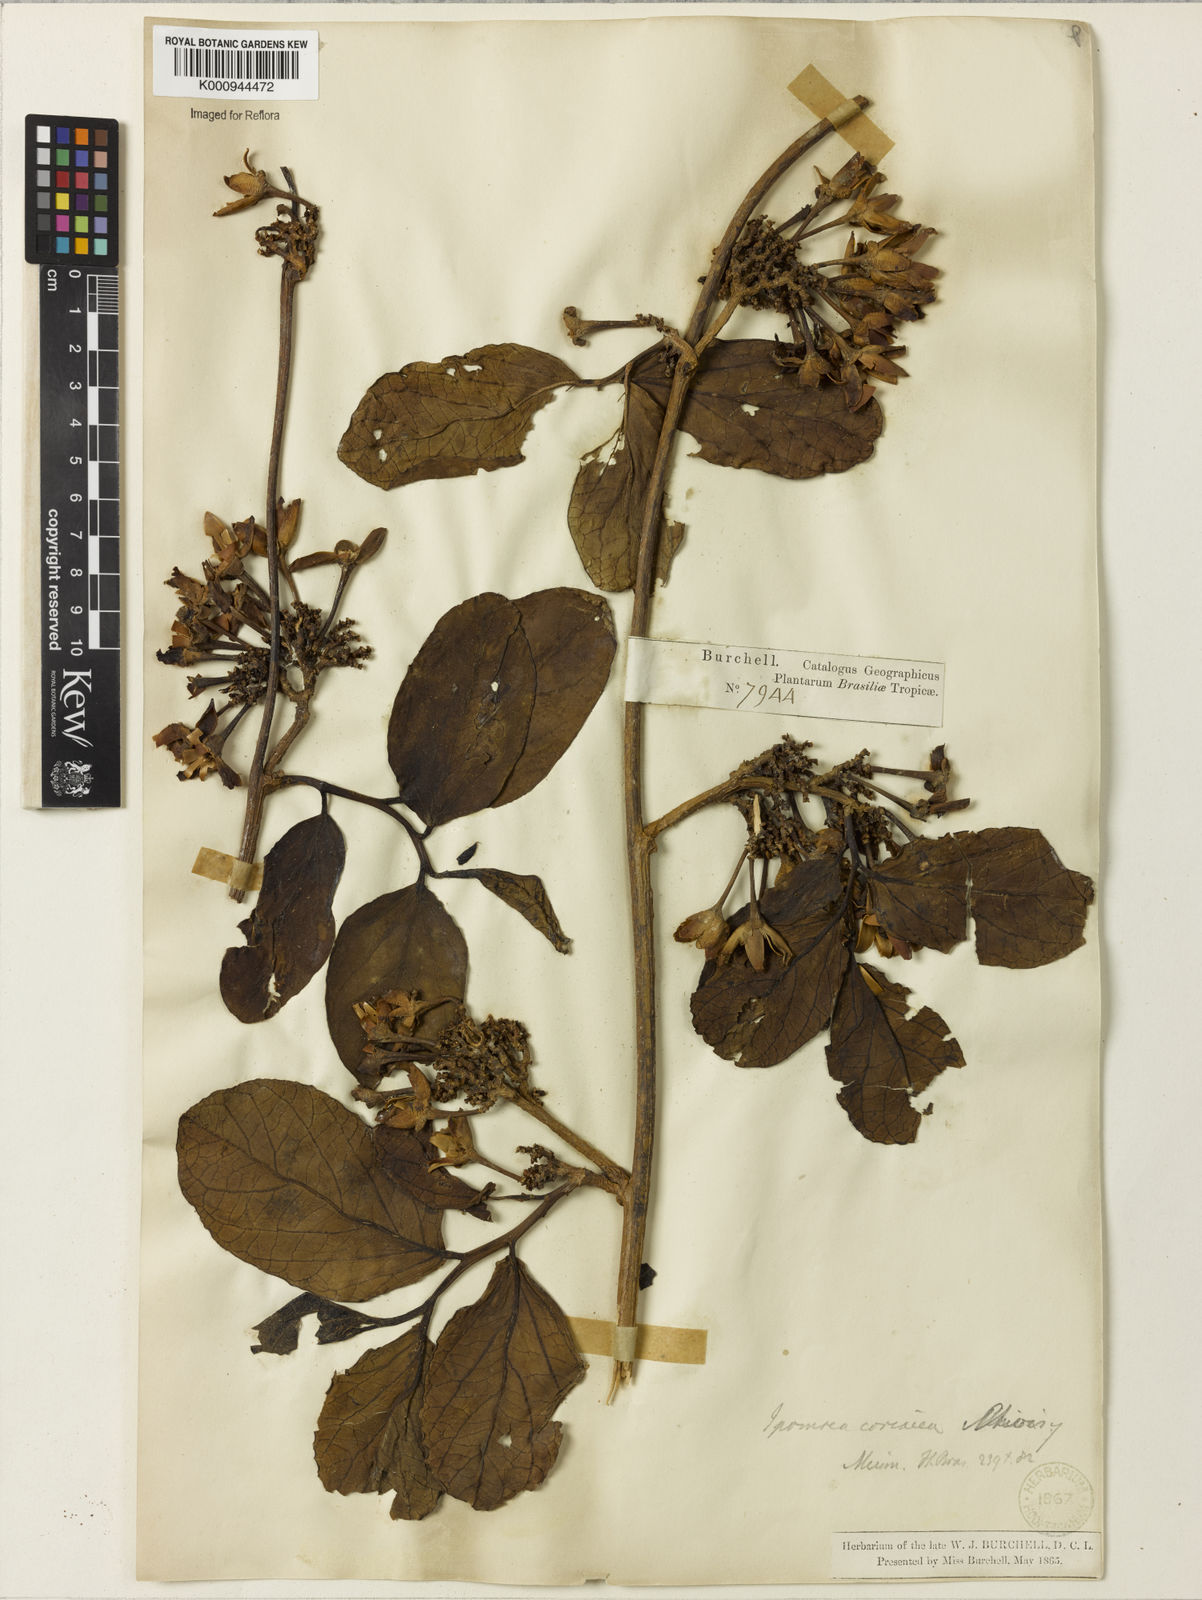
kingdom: Plantae
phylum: Tracheophyta
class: Magnoliopsida
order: Solanales
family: Convolvulaceae
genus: Ipomoea
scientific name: Ipomoea coriacea
